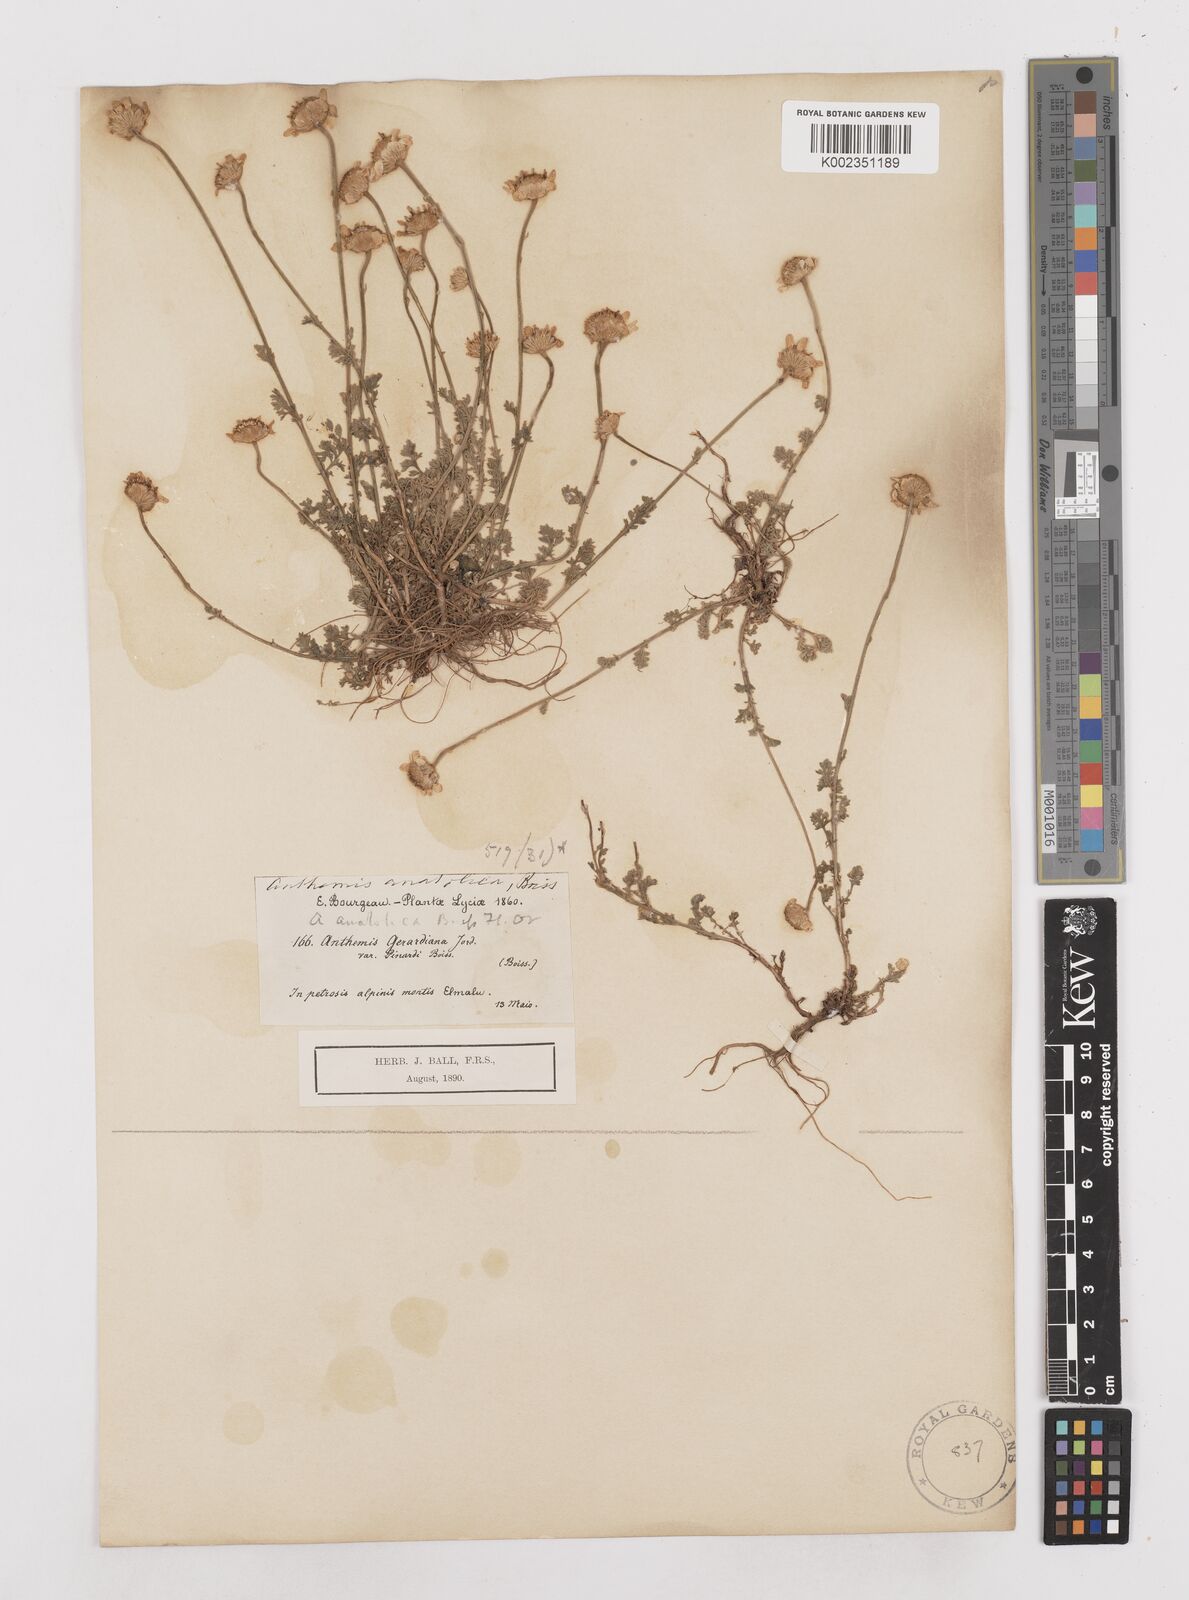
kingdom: Plantae
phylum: Tracheophyta
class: Magnoliopsida
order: Asterales
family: Asteraceae
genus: Anthemis
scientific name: Anthemis cretica
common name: Mountain dog-daisy
